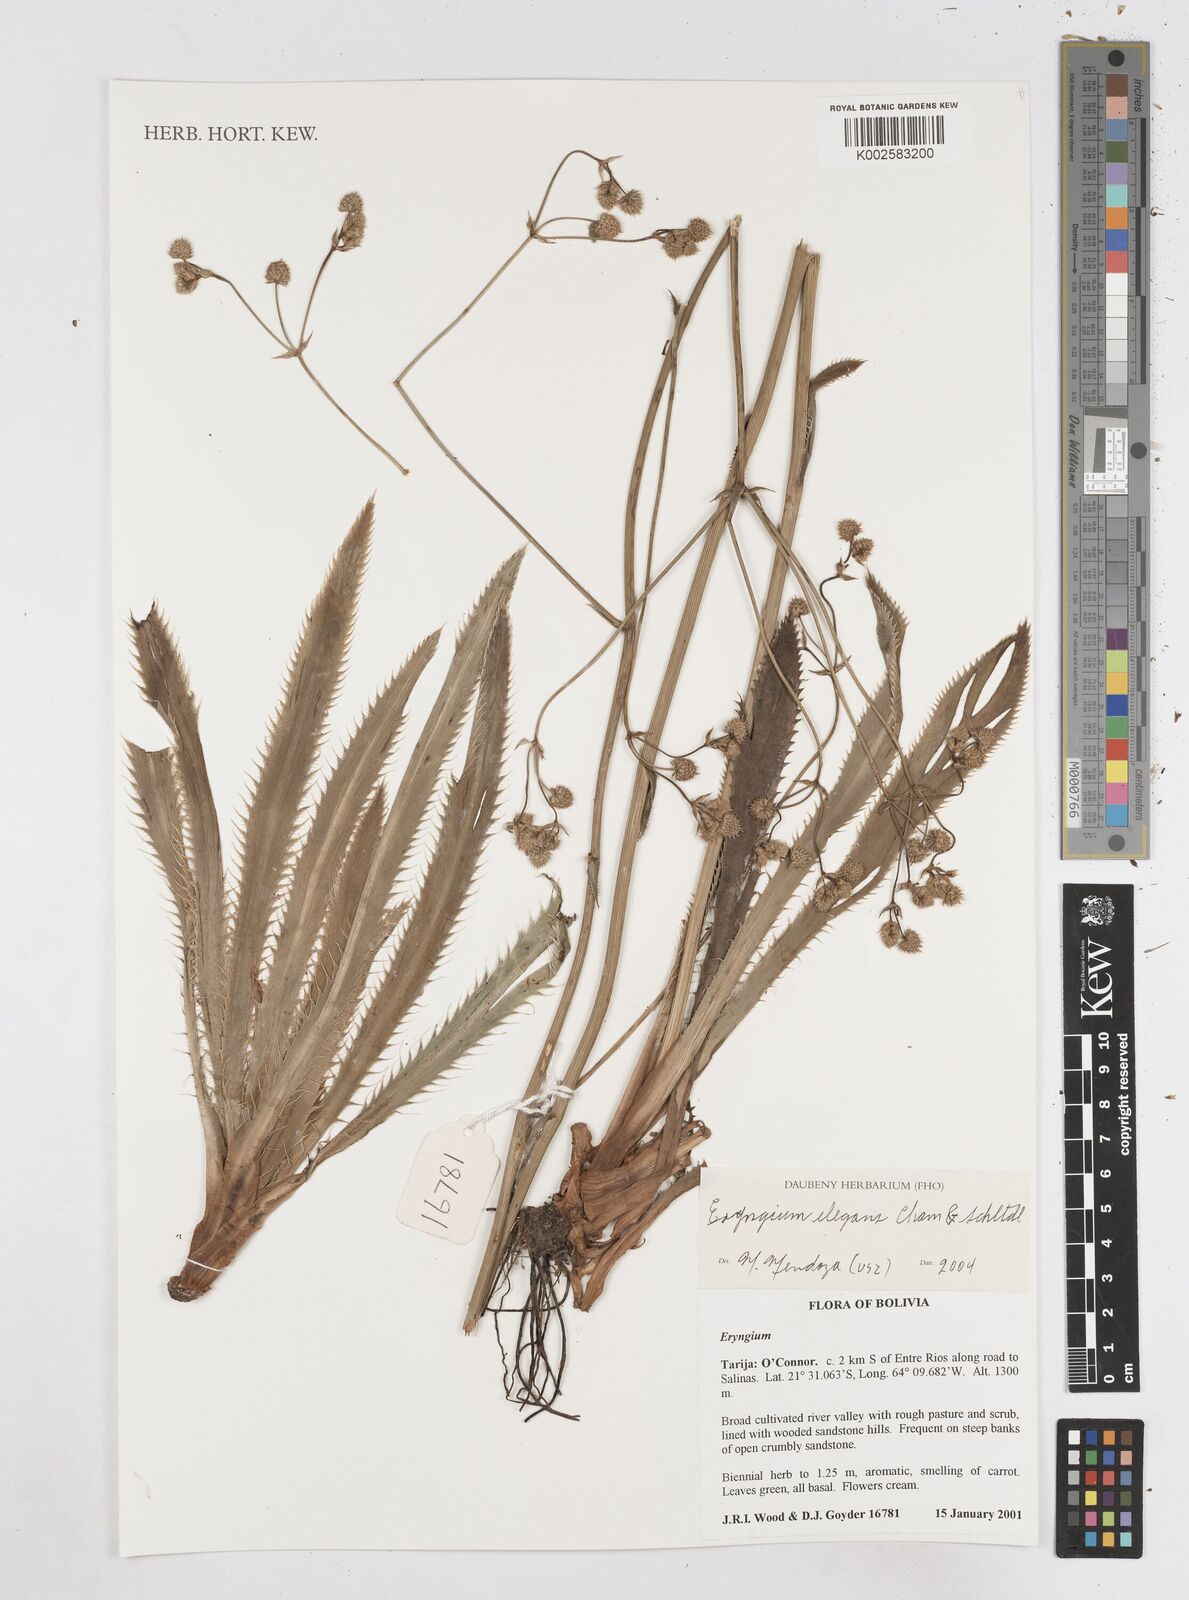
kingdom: Plantae
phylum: Tracheophyta
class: Magnoliopsida
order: Apiales
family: Apiaceae
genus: Eryngium
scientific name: Eryngium elegans
